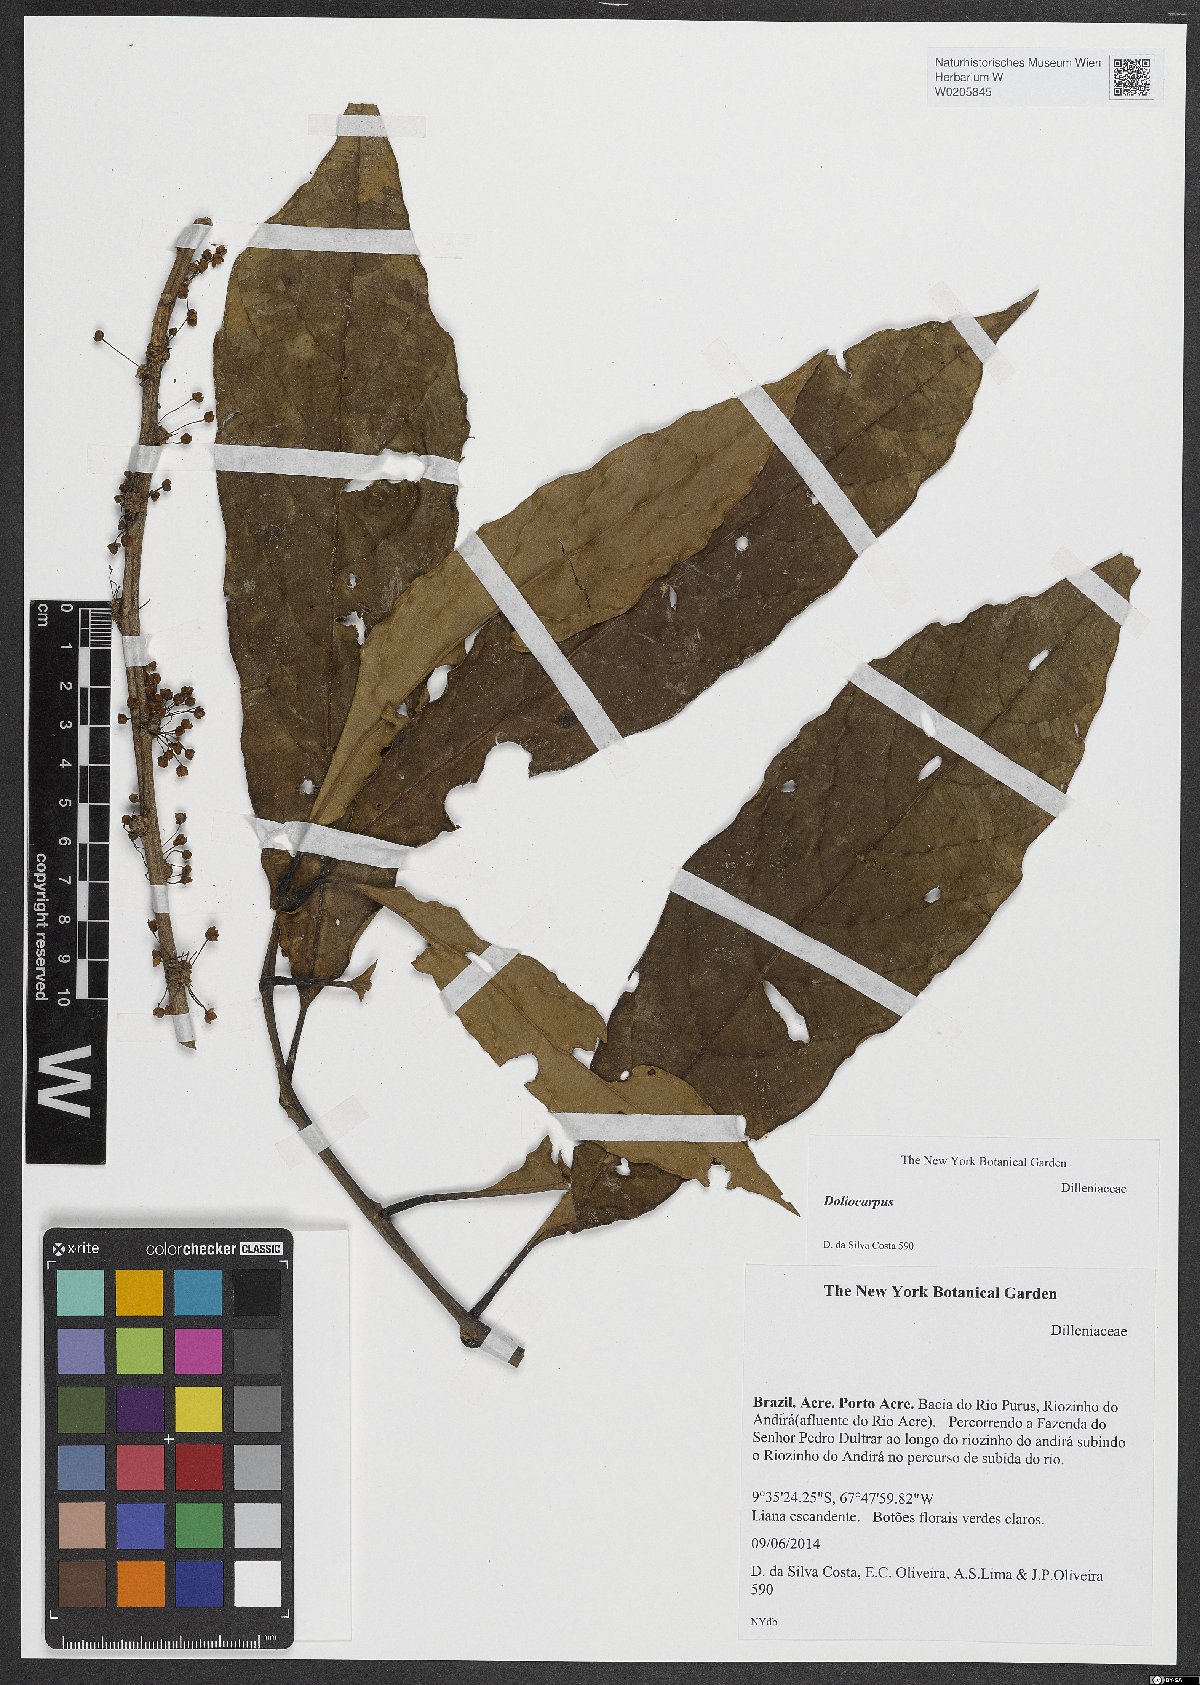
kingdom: Plantae
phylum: Tracheophyta
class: Magnoliopsida
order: Dilleniales
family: Dilleniaceae
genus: Doliocarpus
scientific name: Doliocarpus
